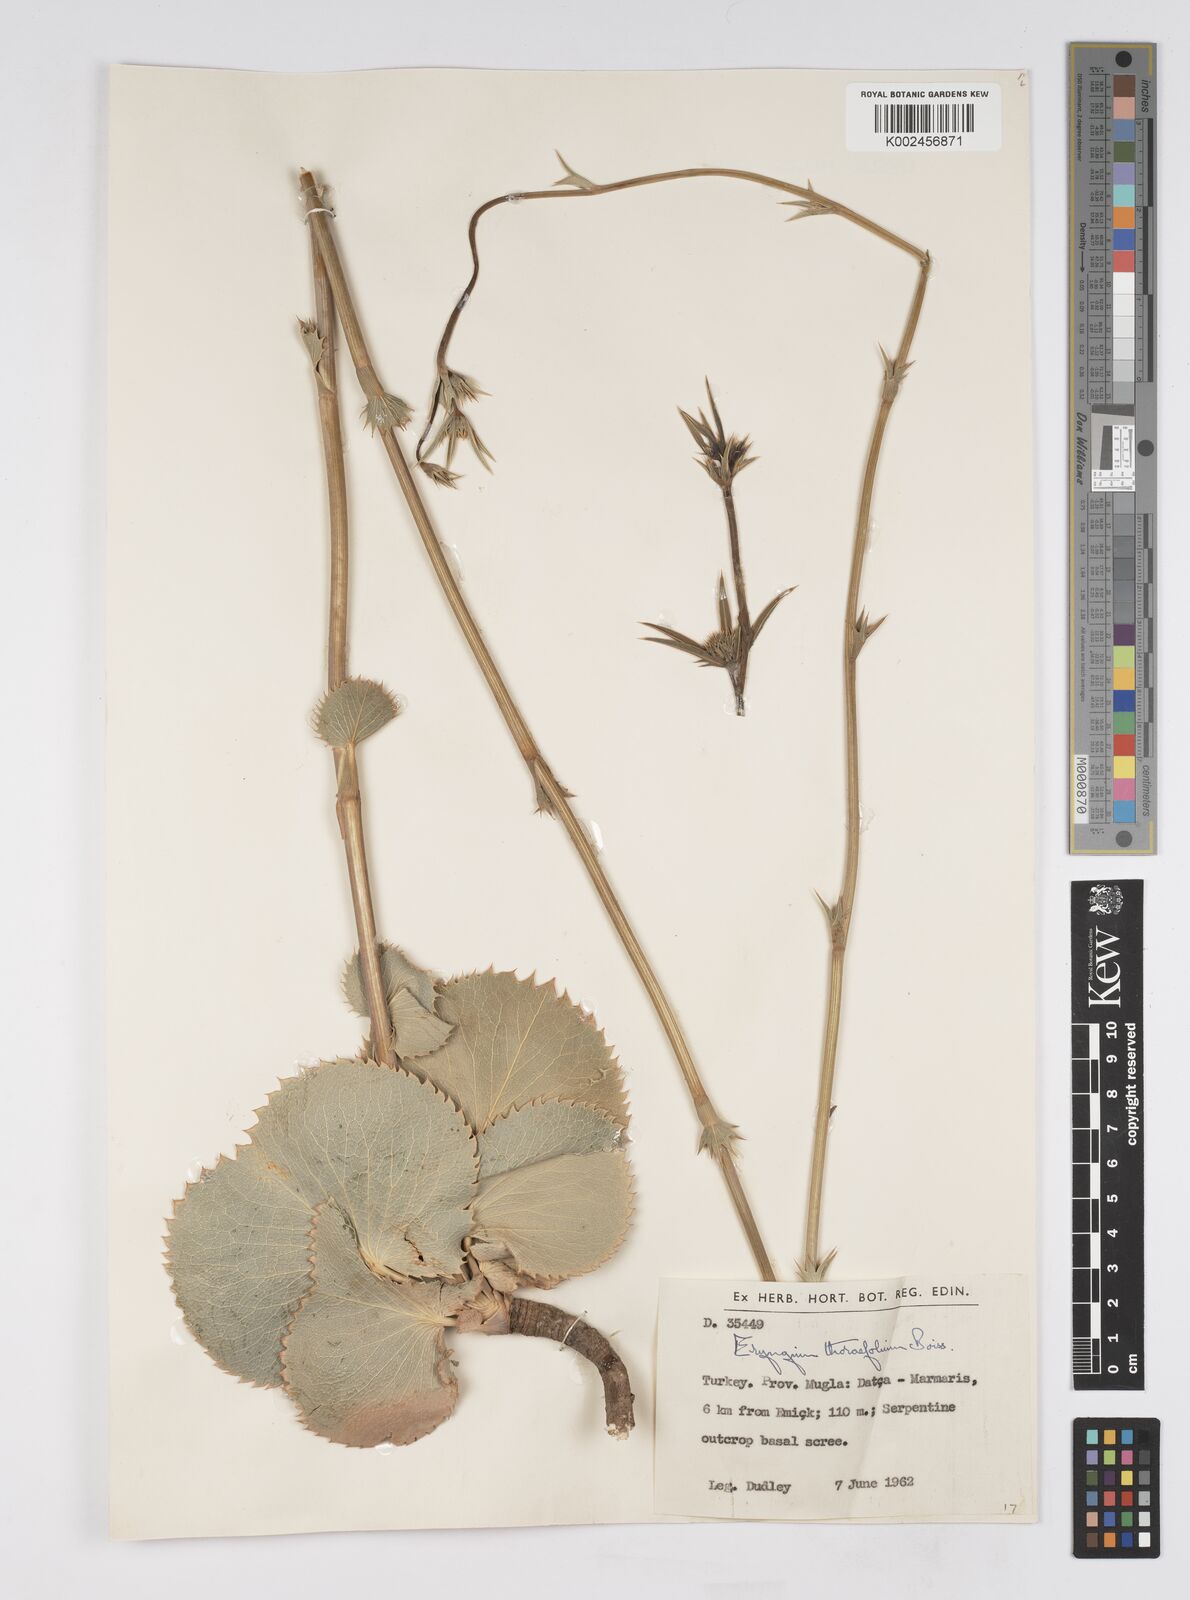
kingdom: Plantae
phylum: Tracheophyta
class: Magnoliopsida
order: Apiales
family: Apiaceae
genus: Eryngium
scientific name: Eryngium thorifolium
